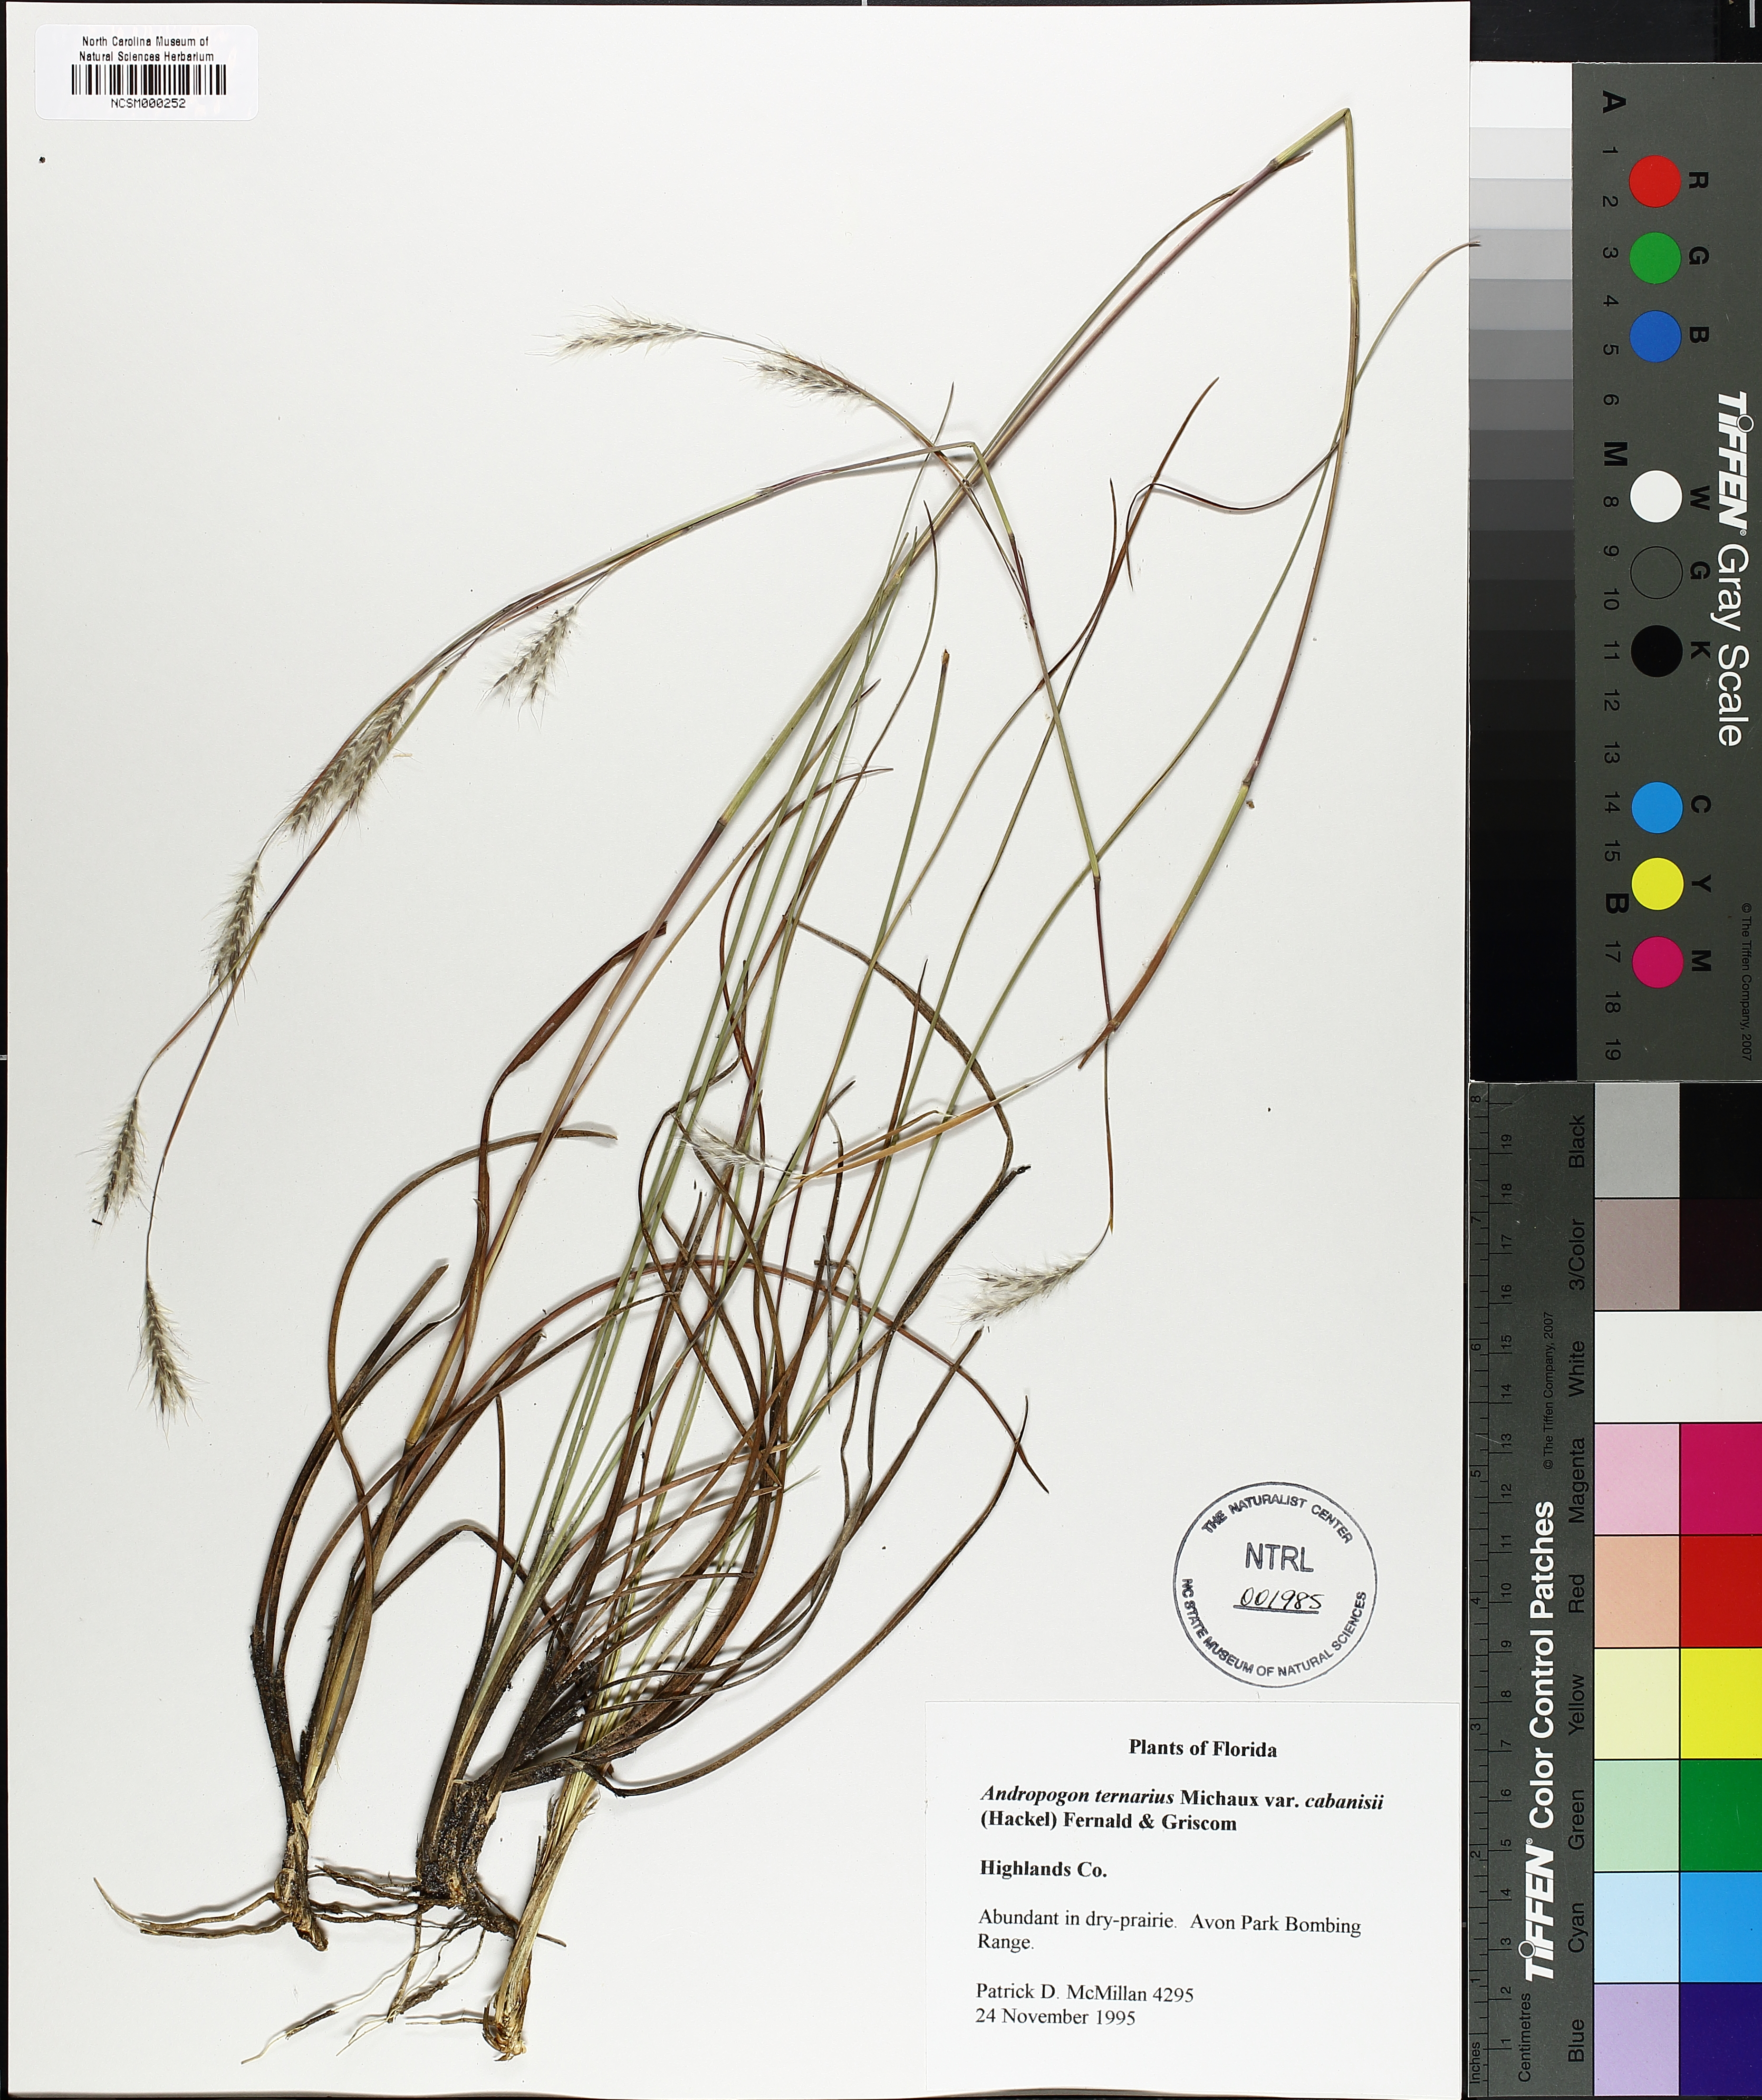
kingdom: Plantae
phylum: Tracheophyta
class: Liliopsida
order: Poales
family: Poaceae
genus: Andropogon
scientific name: Andropogon cabanisii
